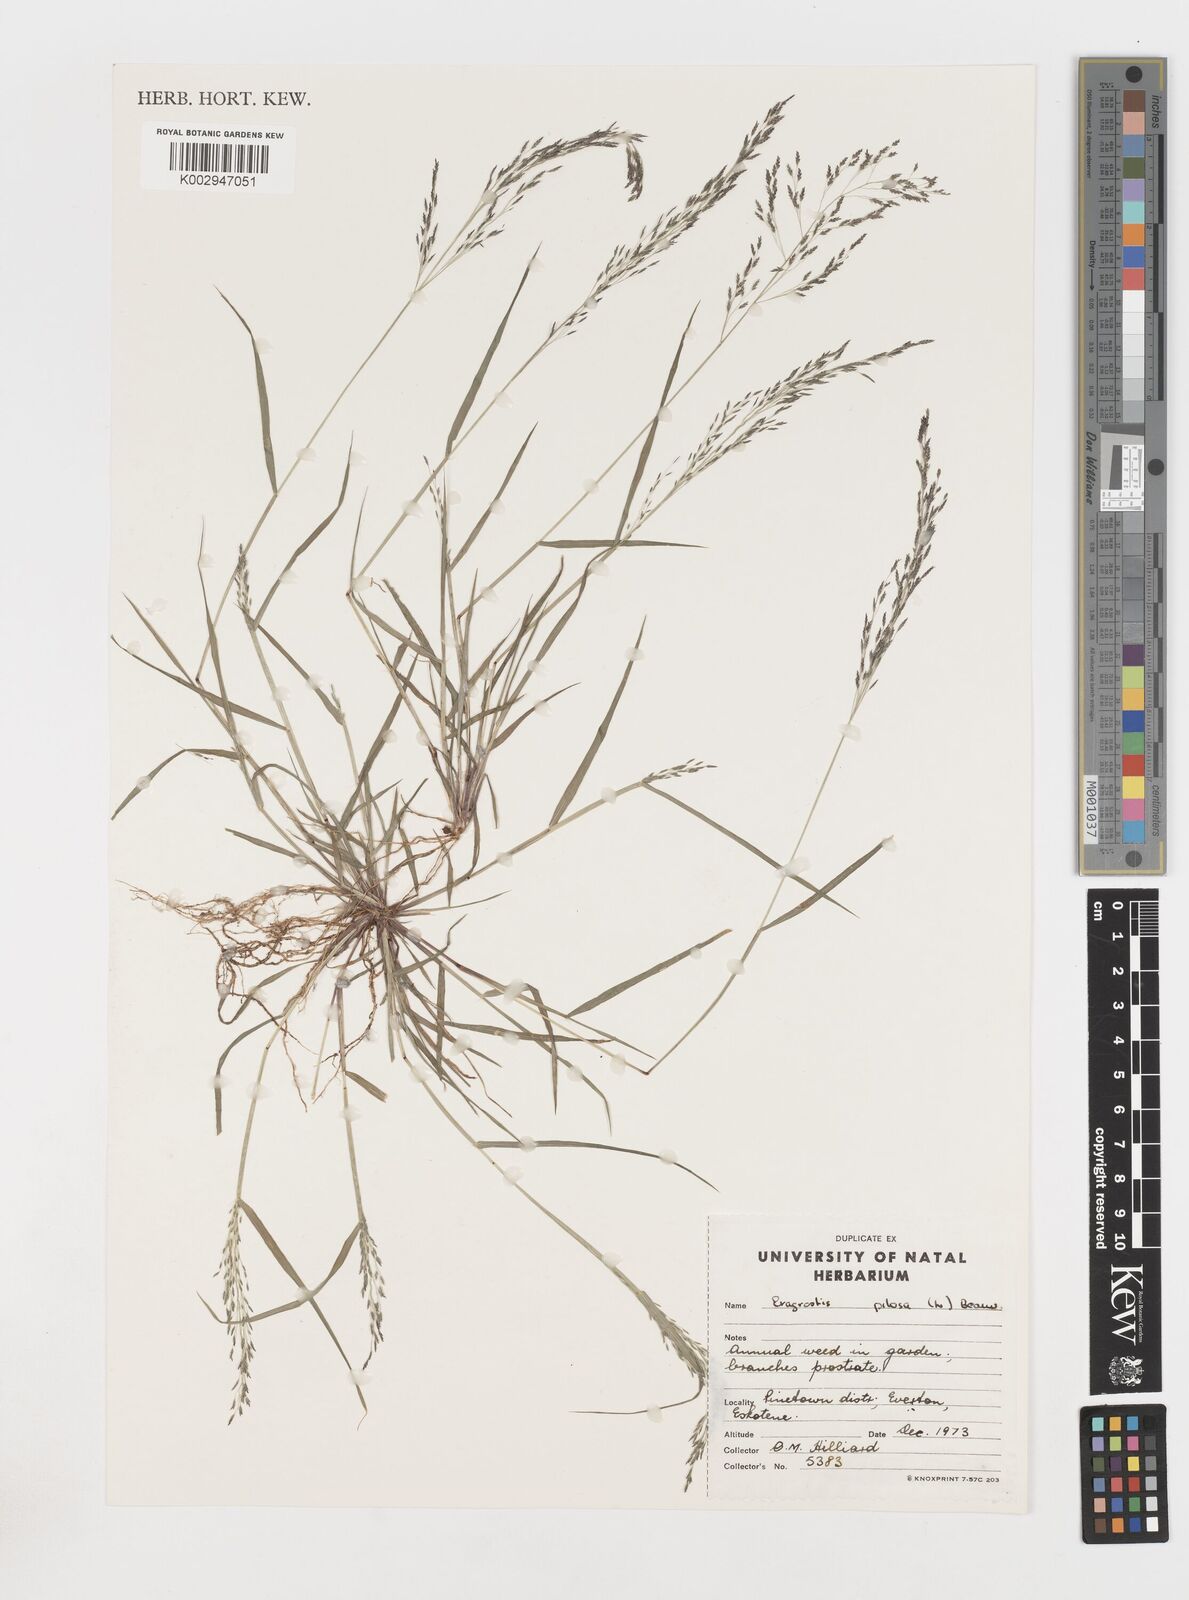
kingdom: Plantae
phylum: Tracheophyta
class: Liliopsida
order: Poales
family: Poaceae
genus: Eragrostis
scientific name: Eragrostis pilosa
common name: Indian lovegrass
